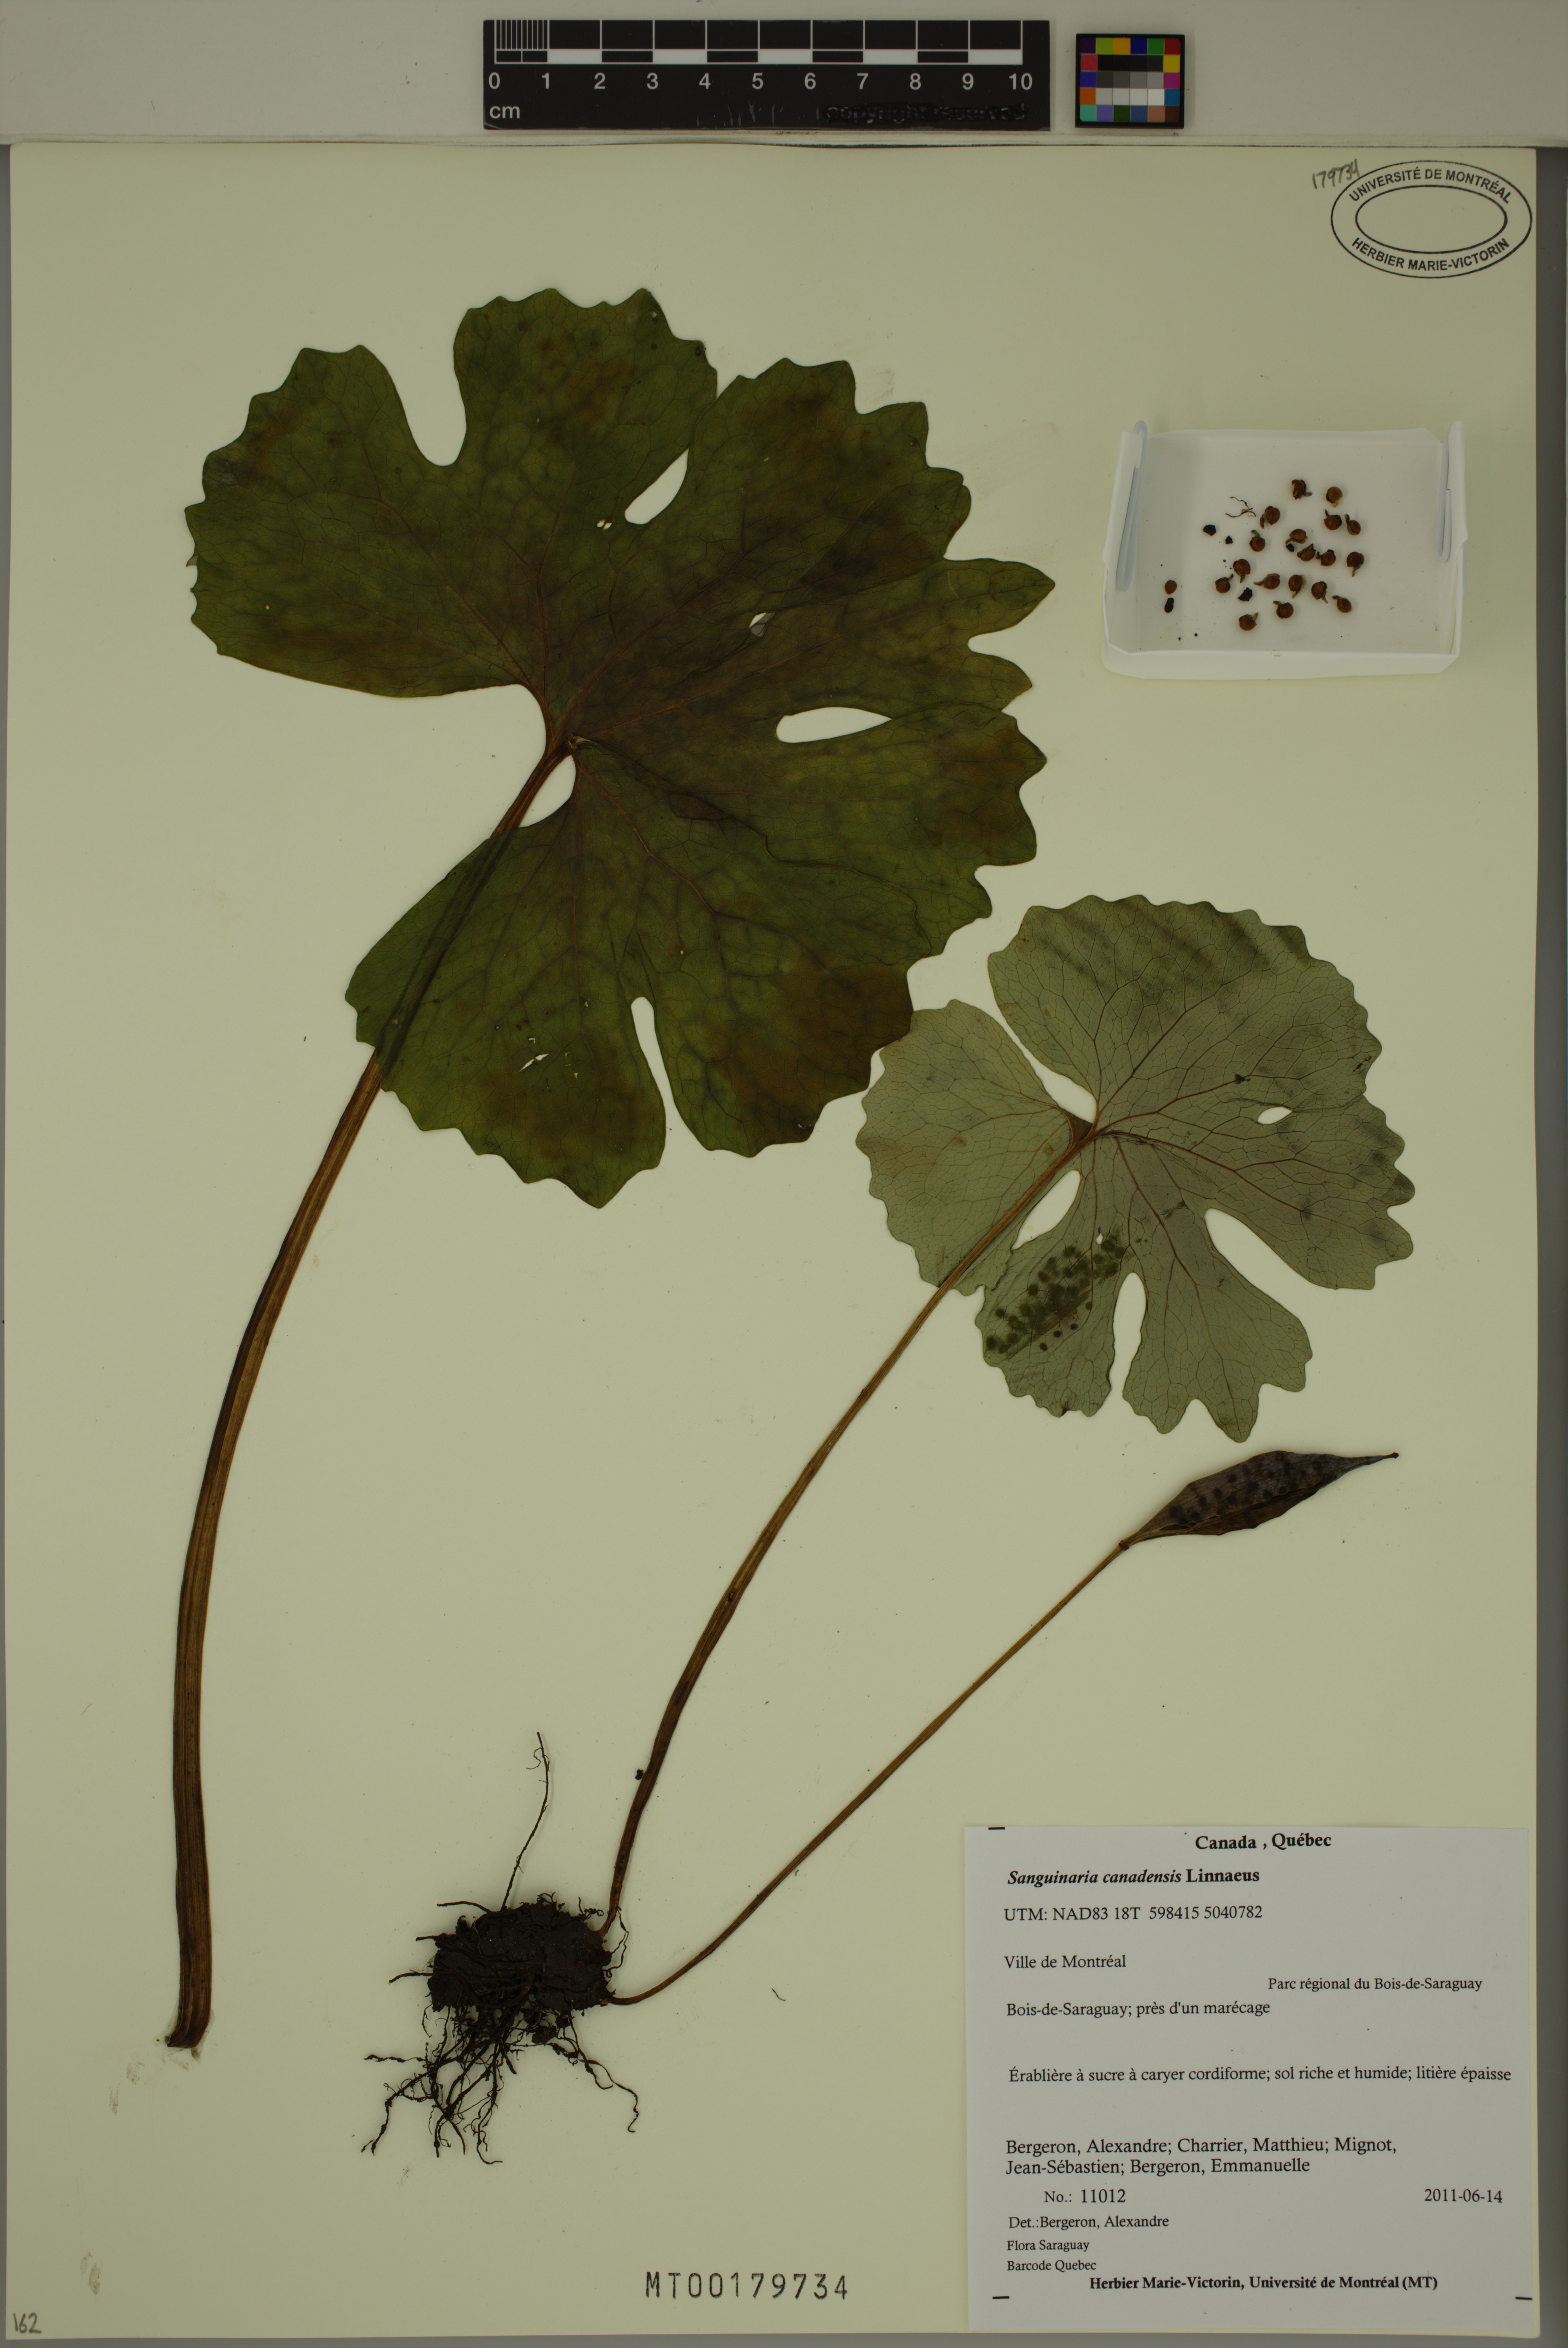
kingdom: Plantae
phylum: Tracheophyta
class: Magnoliopsida
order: Ranunculales
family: Papaveraceae
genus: Sanguinaria
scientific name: Sanguinaria canadensis
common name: Bloodroot
